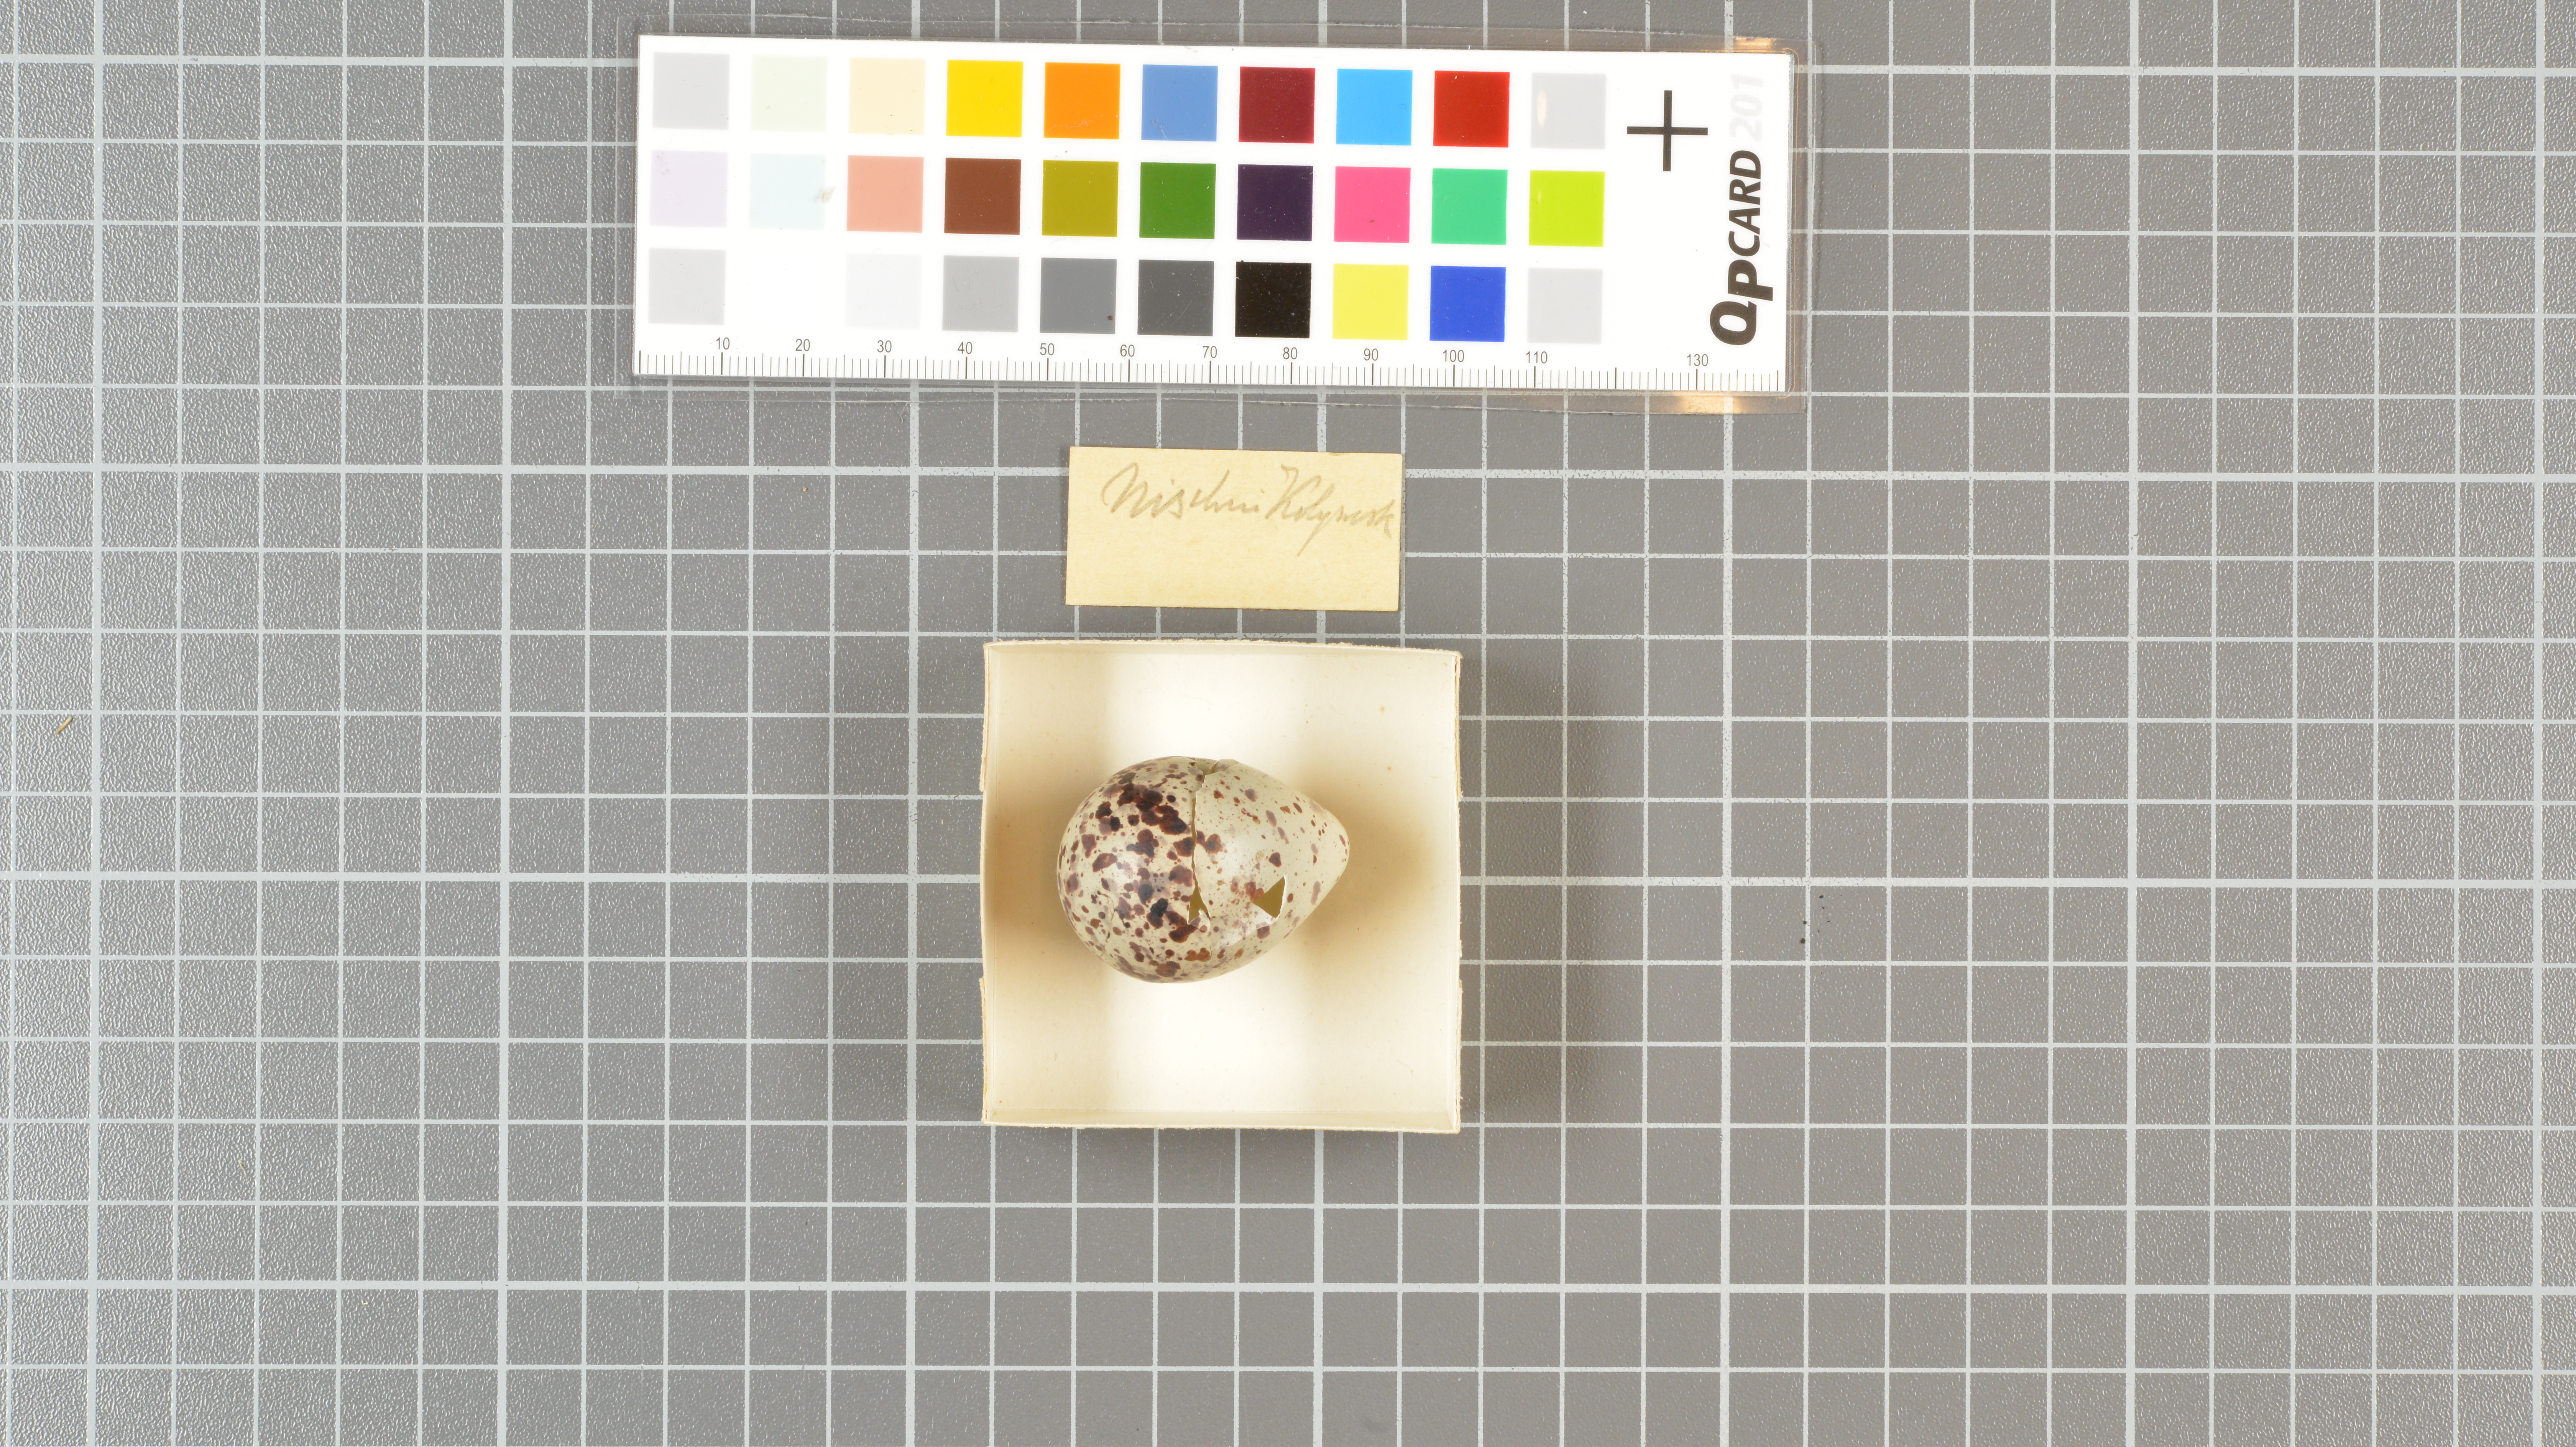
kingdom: Animalia
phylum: Chordata
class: Aves
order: Charadriiformes
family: Scolopacidae
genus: Tringa
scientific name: Tringa ochropus
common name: Green sandpiper
